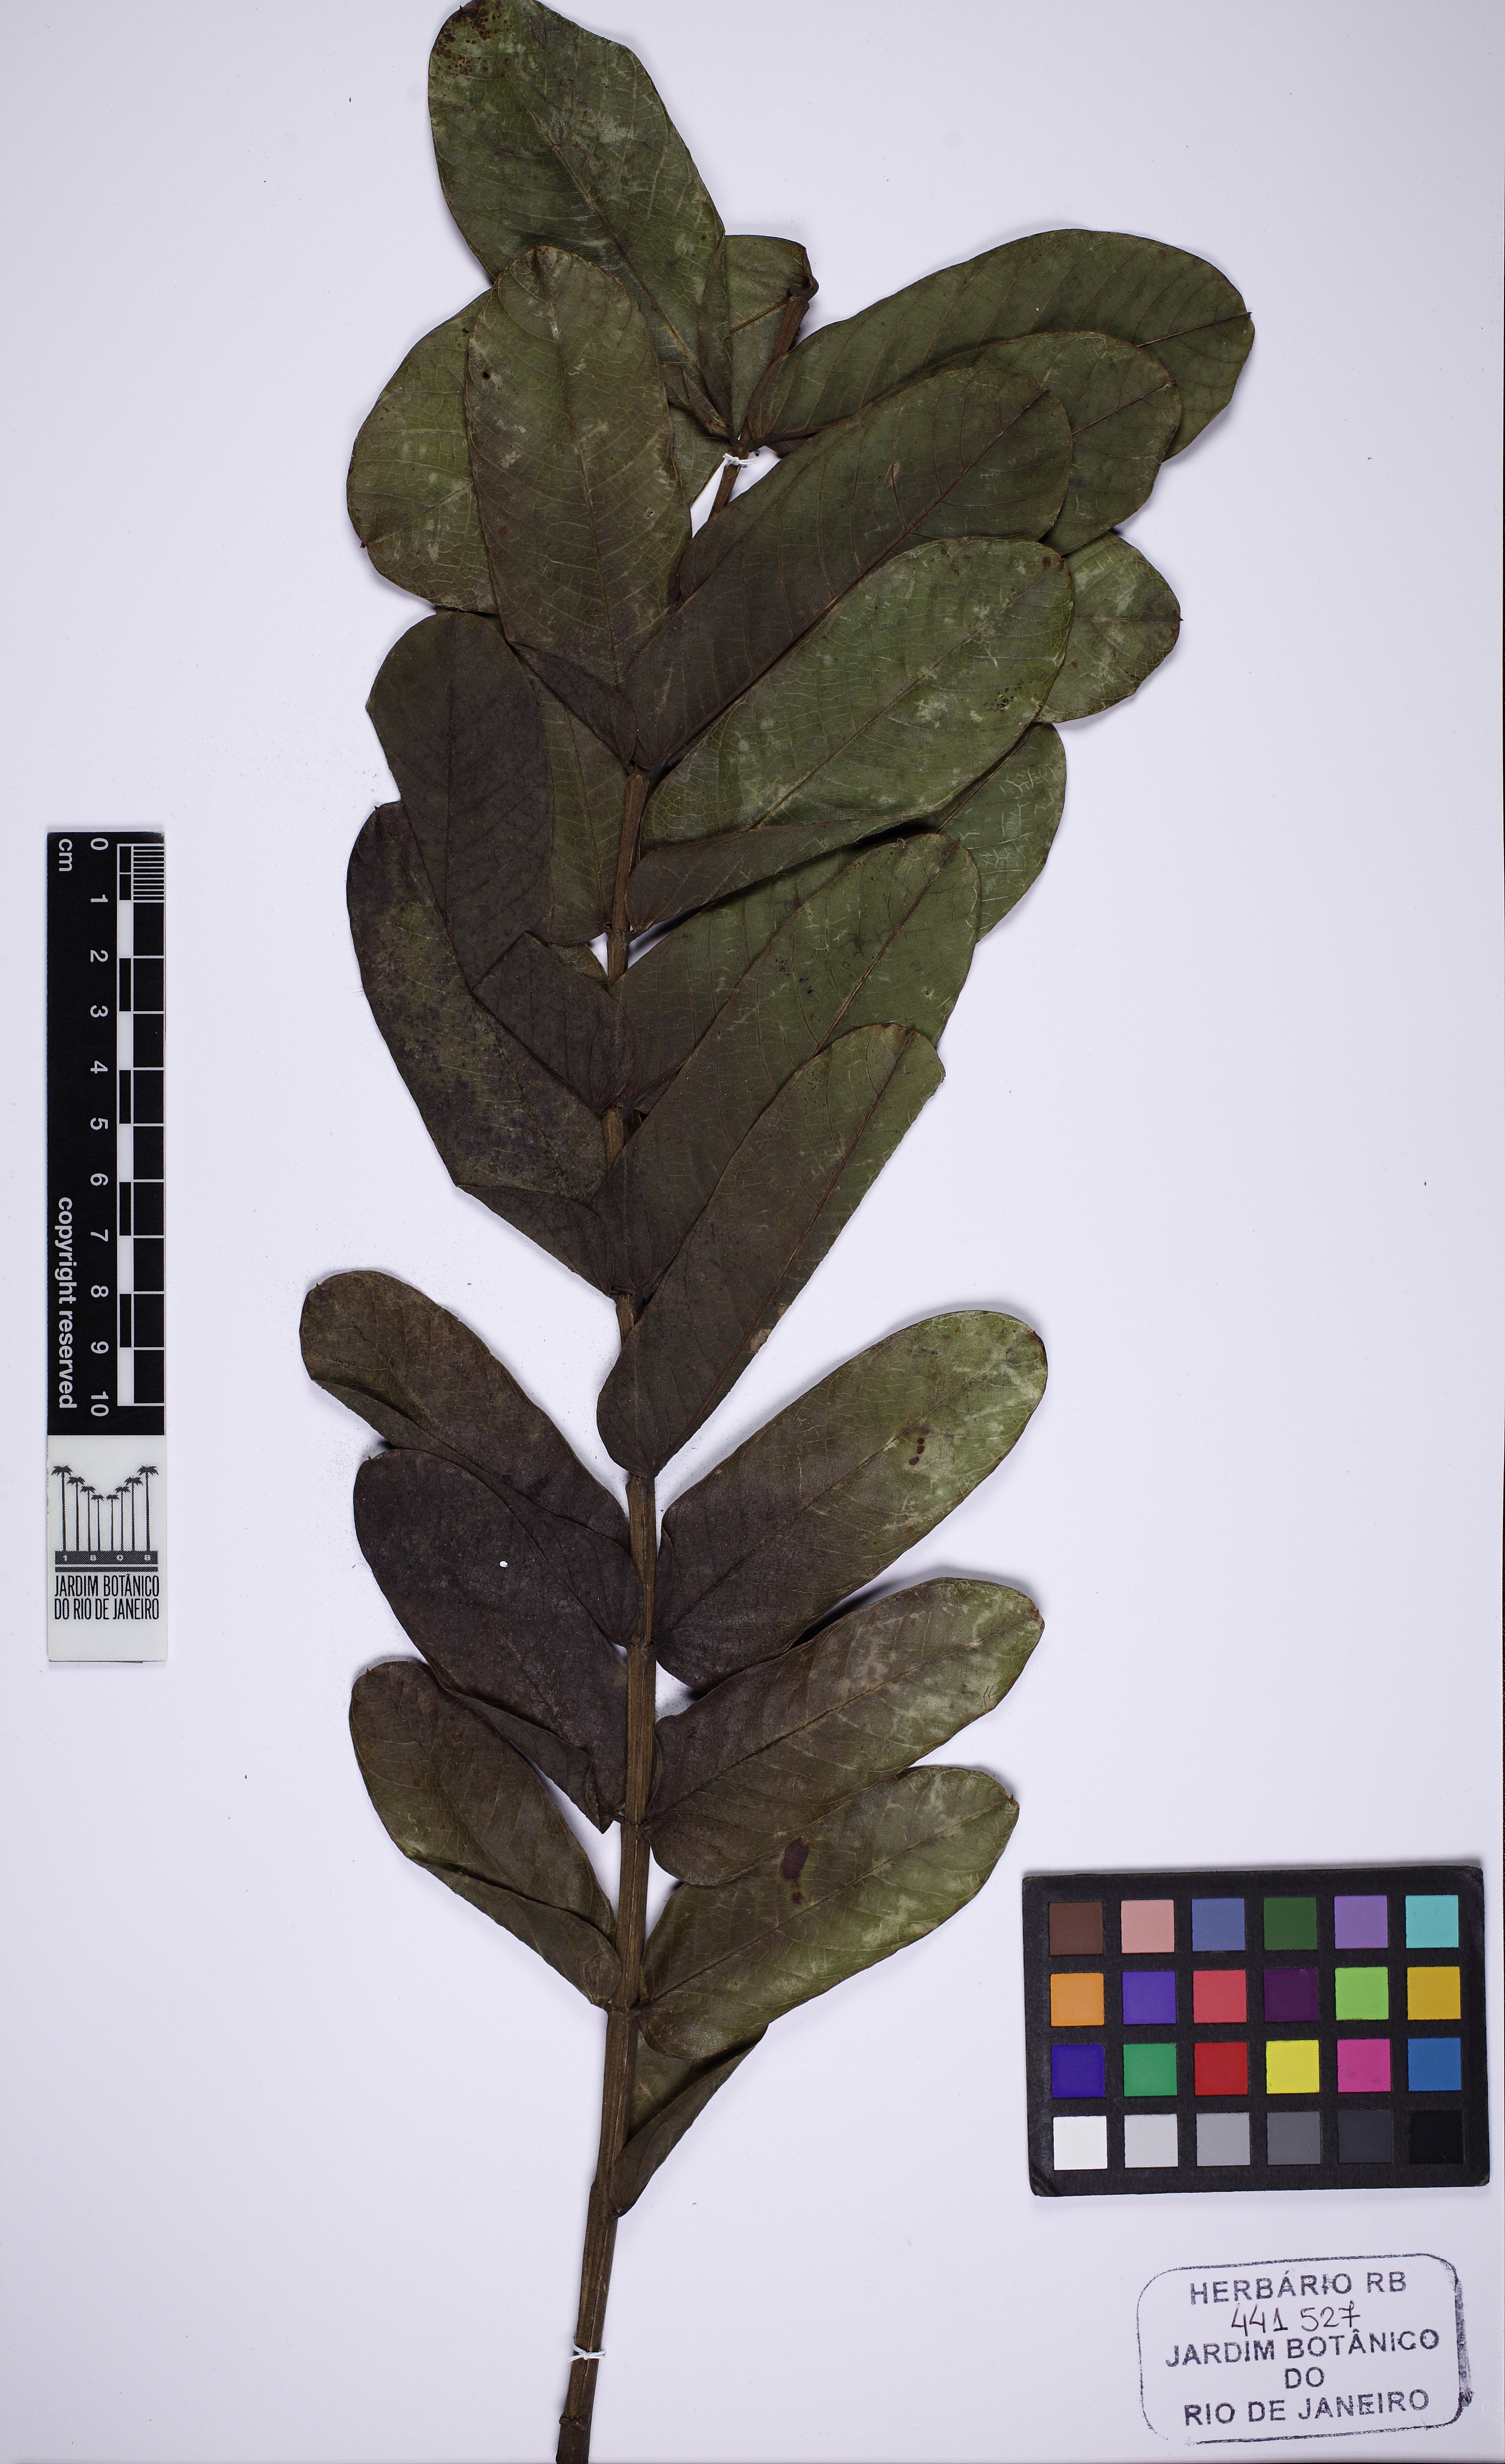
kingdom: Plantae
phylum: Tracheophyta
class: Magnoliopsida
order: Fabales
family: Fabaceae
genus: Senna
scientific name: Senna alata
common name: Emperor's candlesticks
